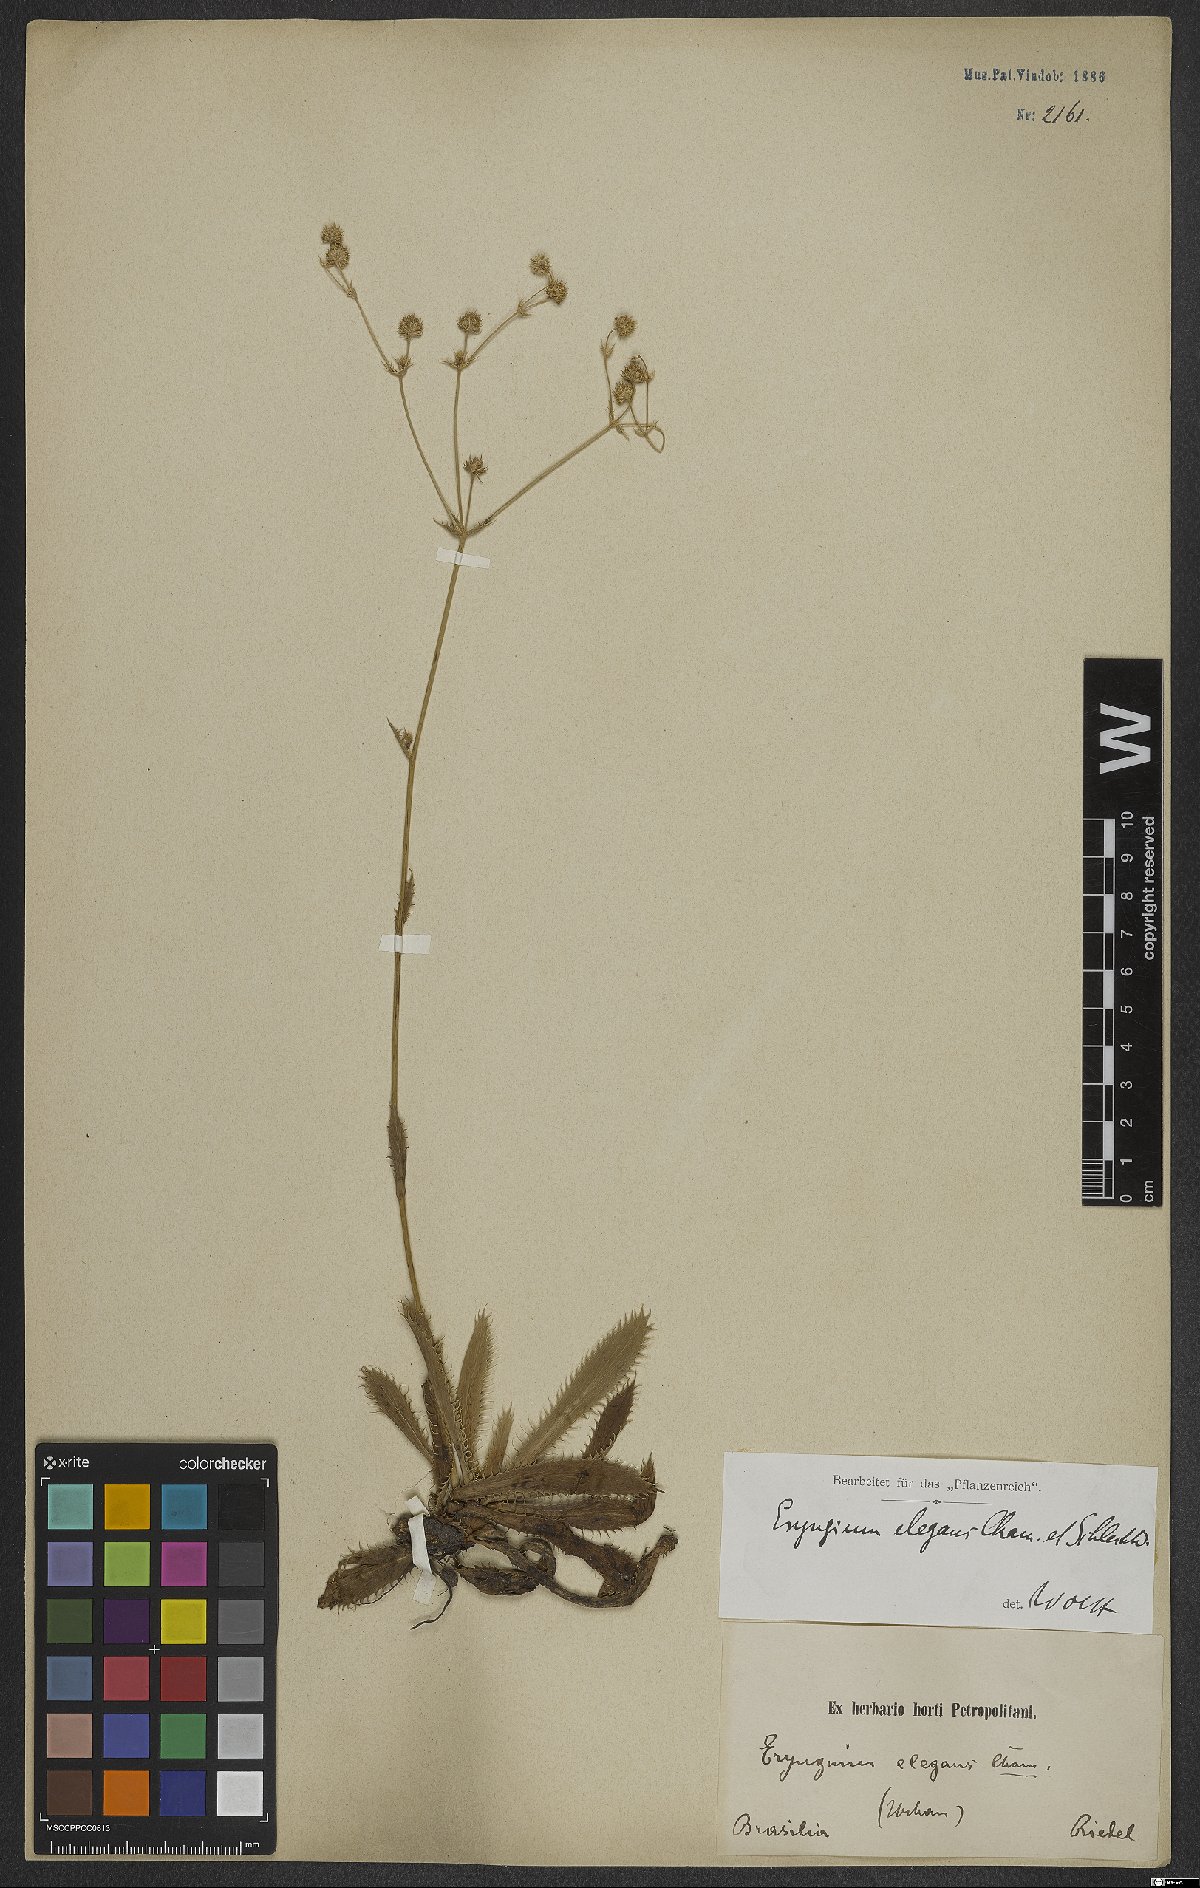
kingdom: Plantae
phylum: Tracheophyta
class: Magnoliopsida
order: Apiales
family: Apiaceae
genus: Eryngium
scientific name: Eryngium elegans
